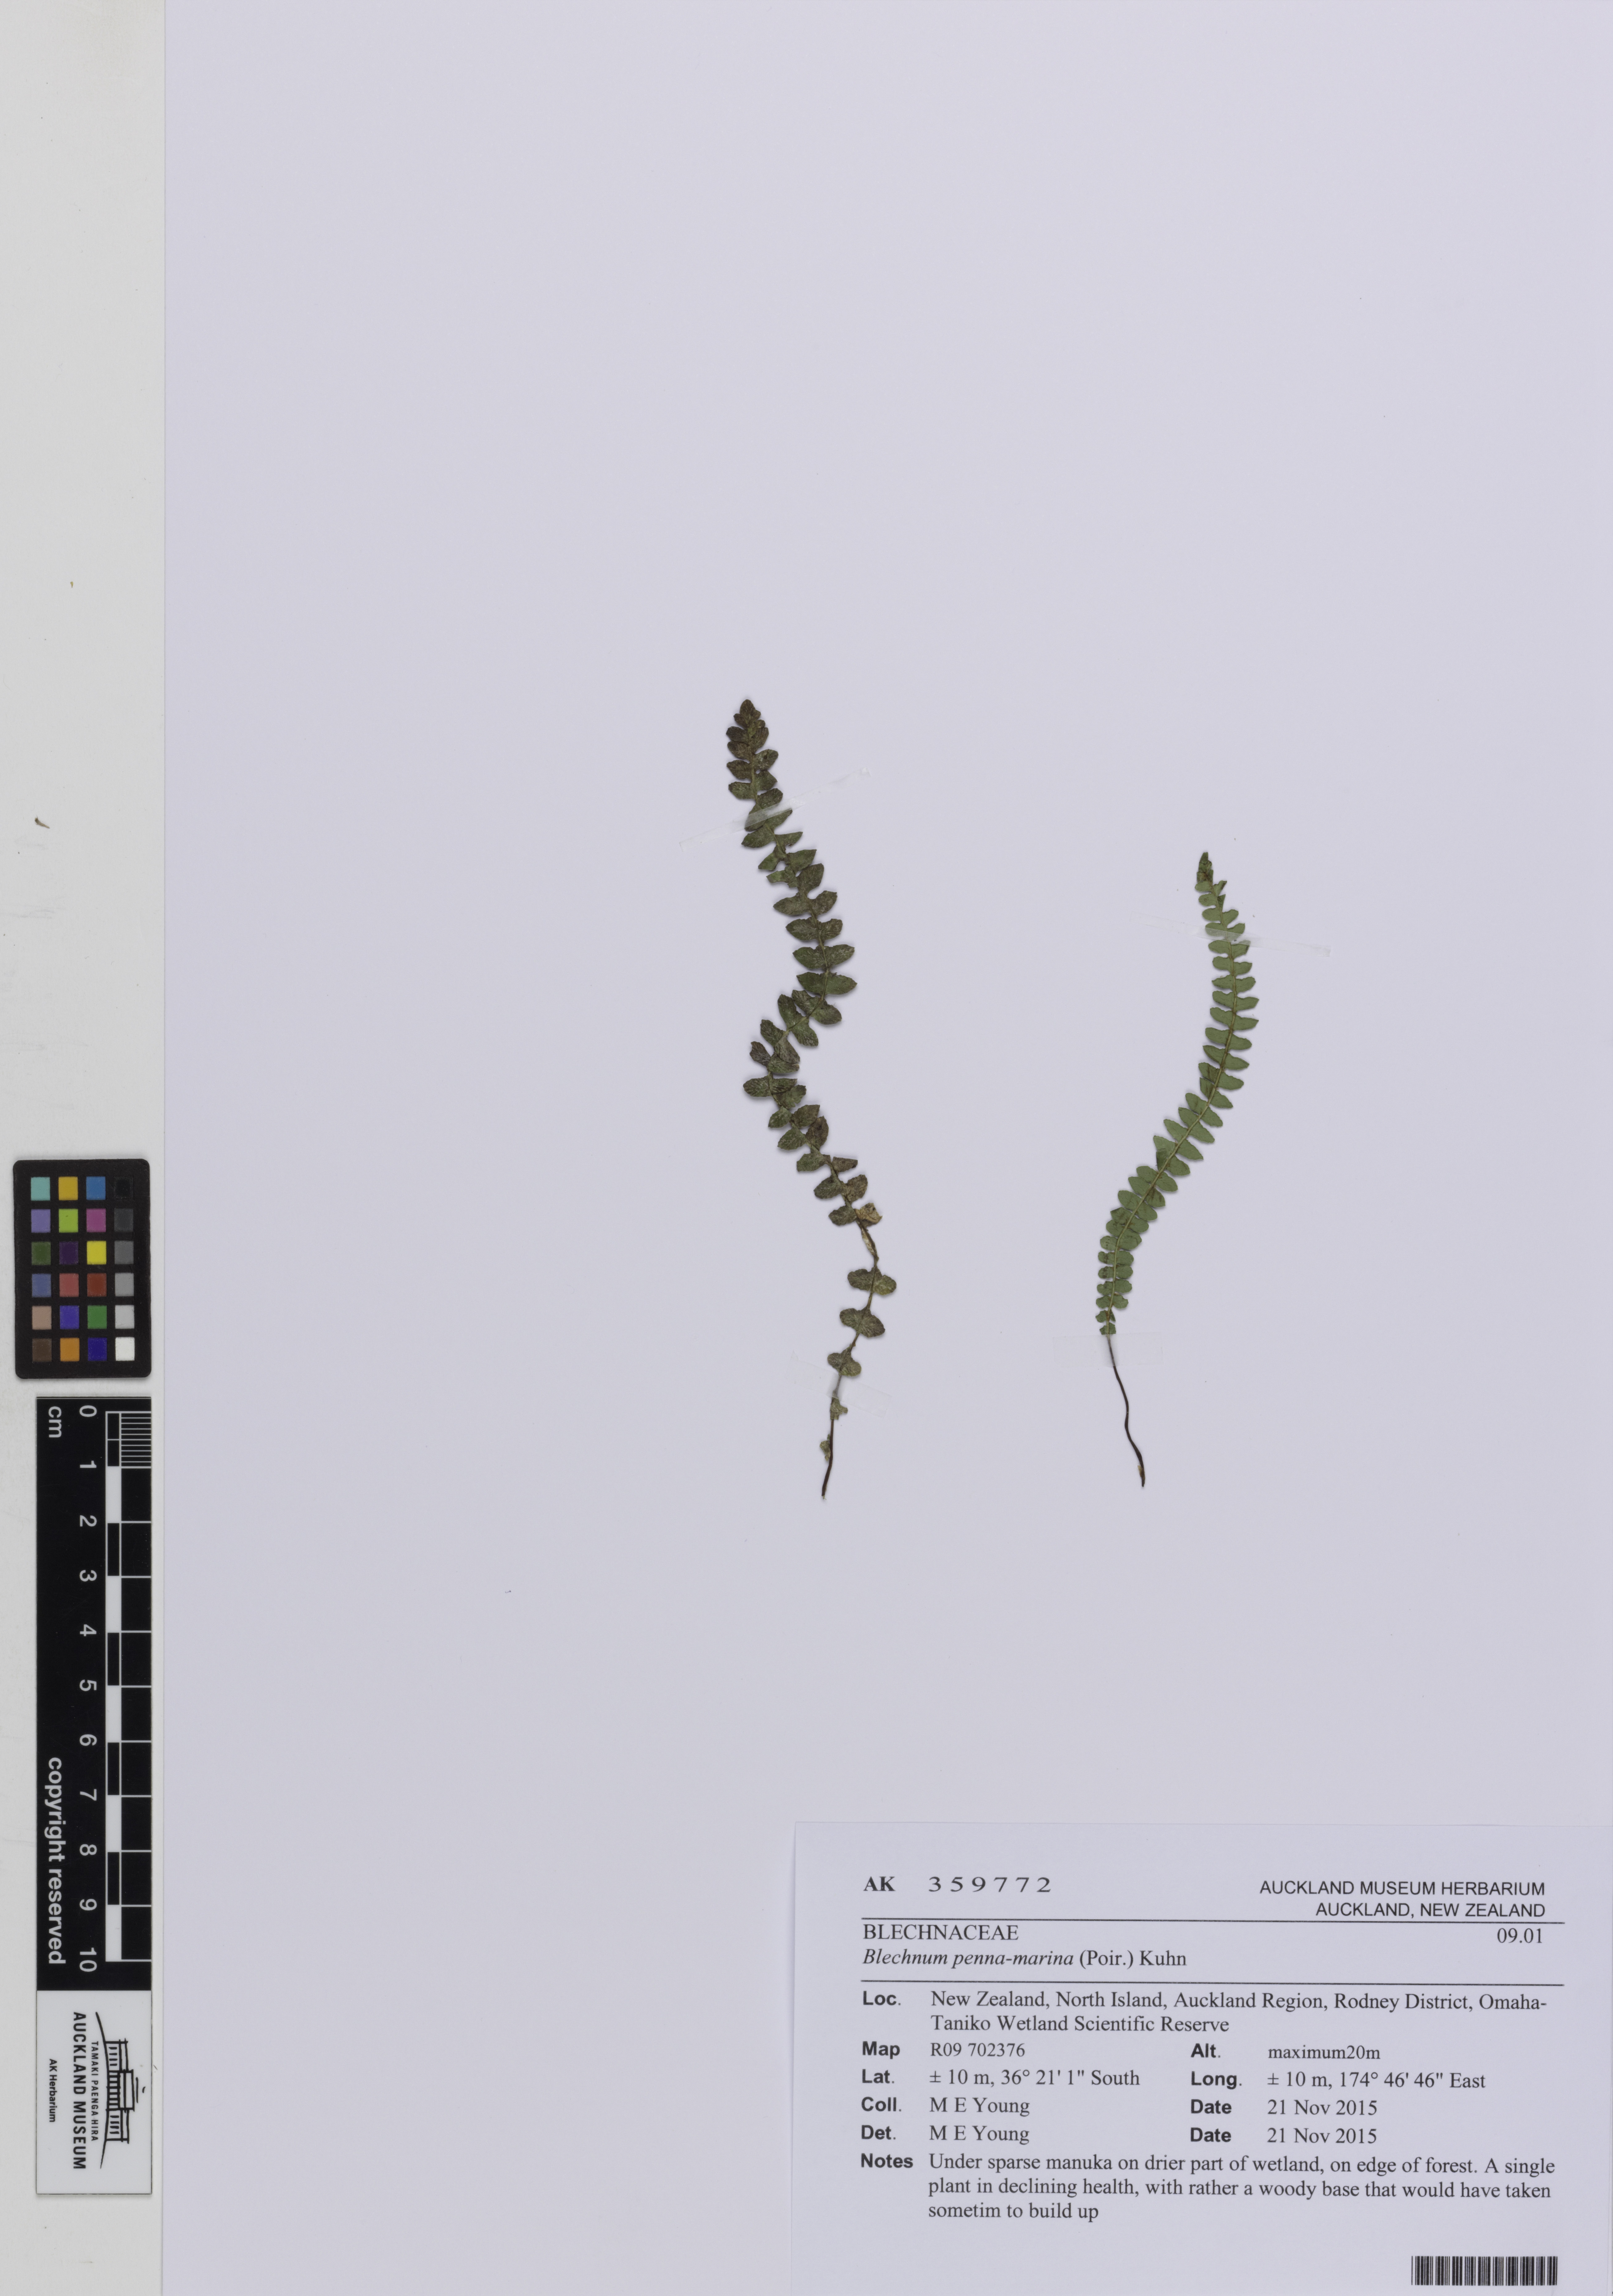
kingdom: Plantae
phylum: Tracheophyta
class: Polypodiopsida
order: Polypodiales
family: Blechnaceae
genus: Austroblechnum
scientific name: Austroblechnum penna-marina
